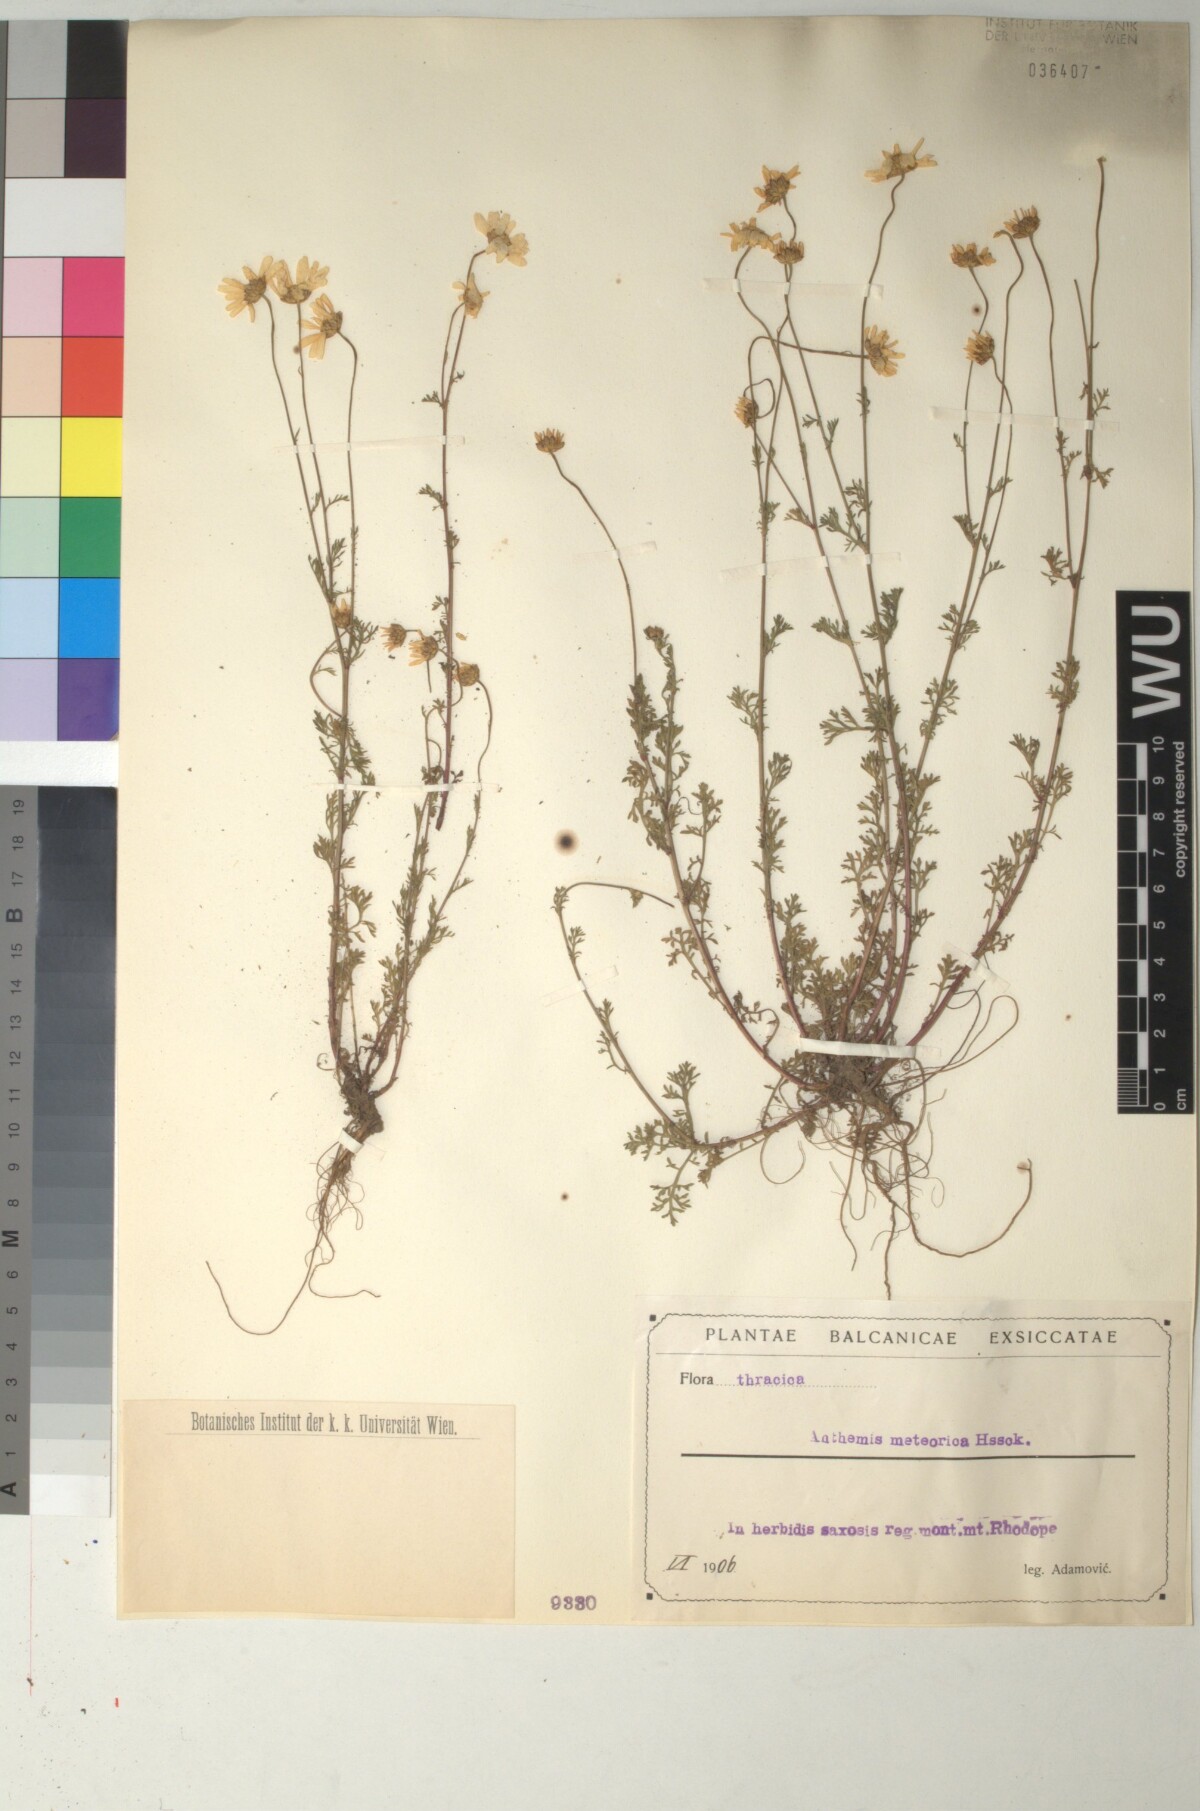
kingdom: Plantae
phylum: Tracheophyta
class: Magnoliopsida
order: Asterales
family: Asteraceae
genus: Anthemis
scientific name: Anthemis cretica
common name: Mountain dog-daisy
